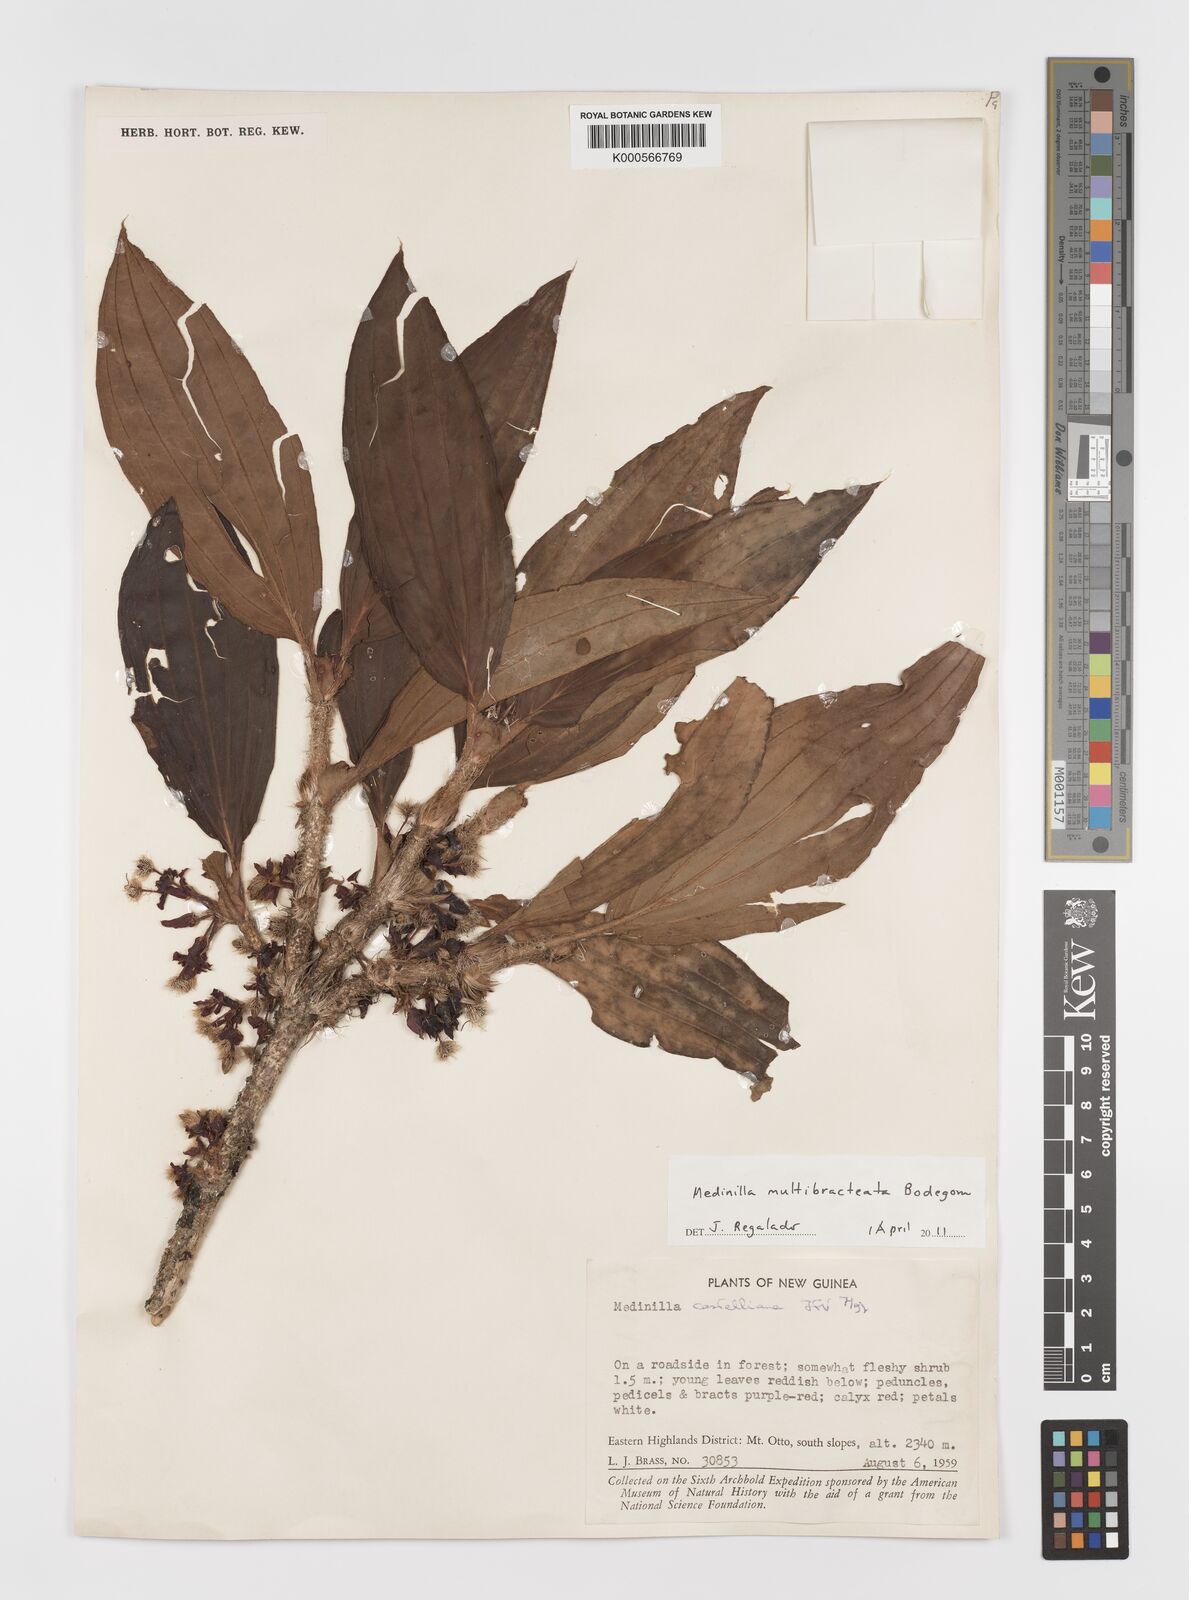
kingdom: Plantae
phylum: Tracheophyta
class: Magnoliopsida
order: Myrtales
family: Melastomataceae
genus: Medinilla
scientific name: Medinilla multibracteata
